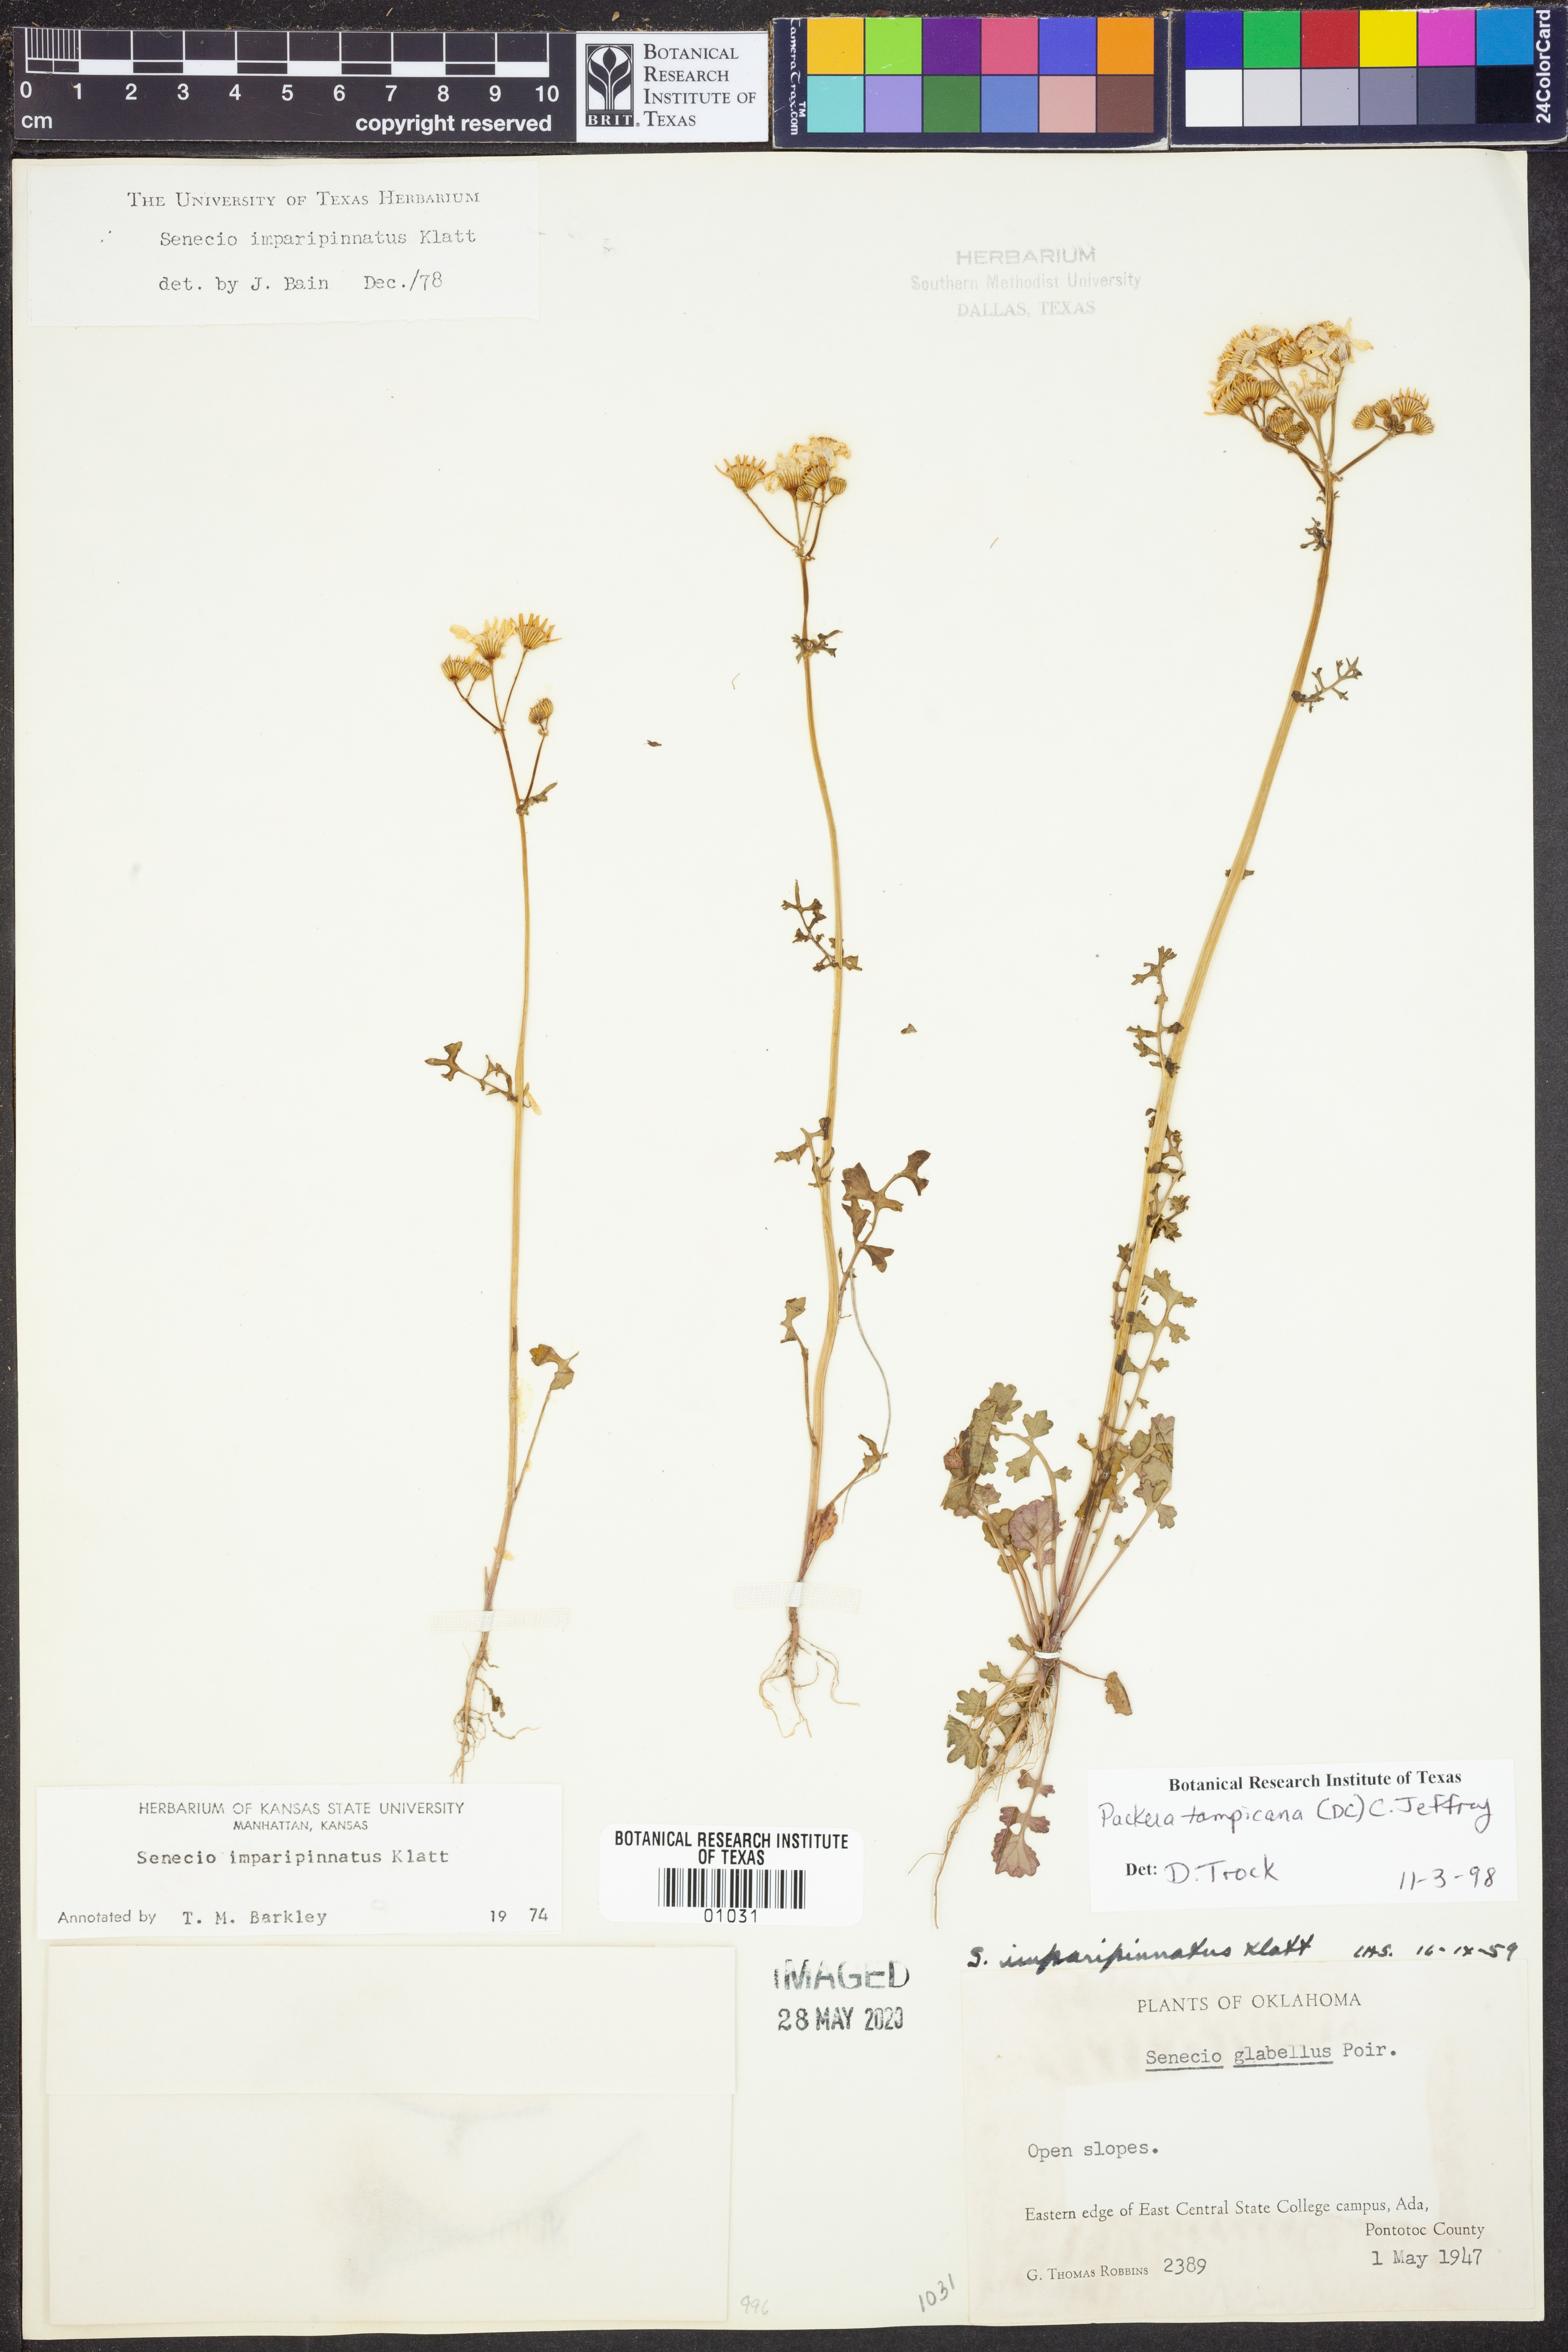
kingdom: Plantae
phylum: Tracheophyta
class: Magnoliopsida
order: Asterales
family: Asteraceae
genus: Packera
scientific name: Packera tampicana
